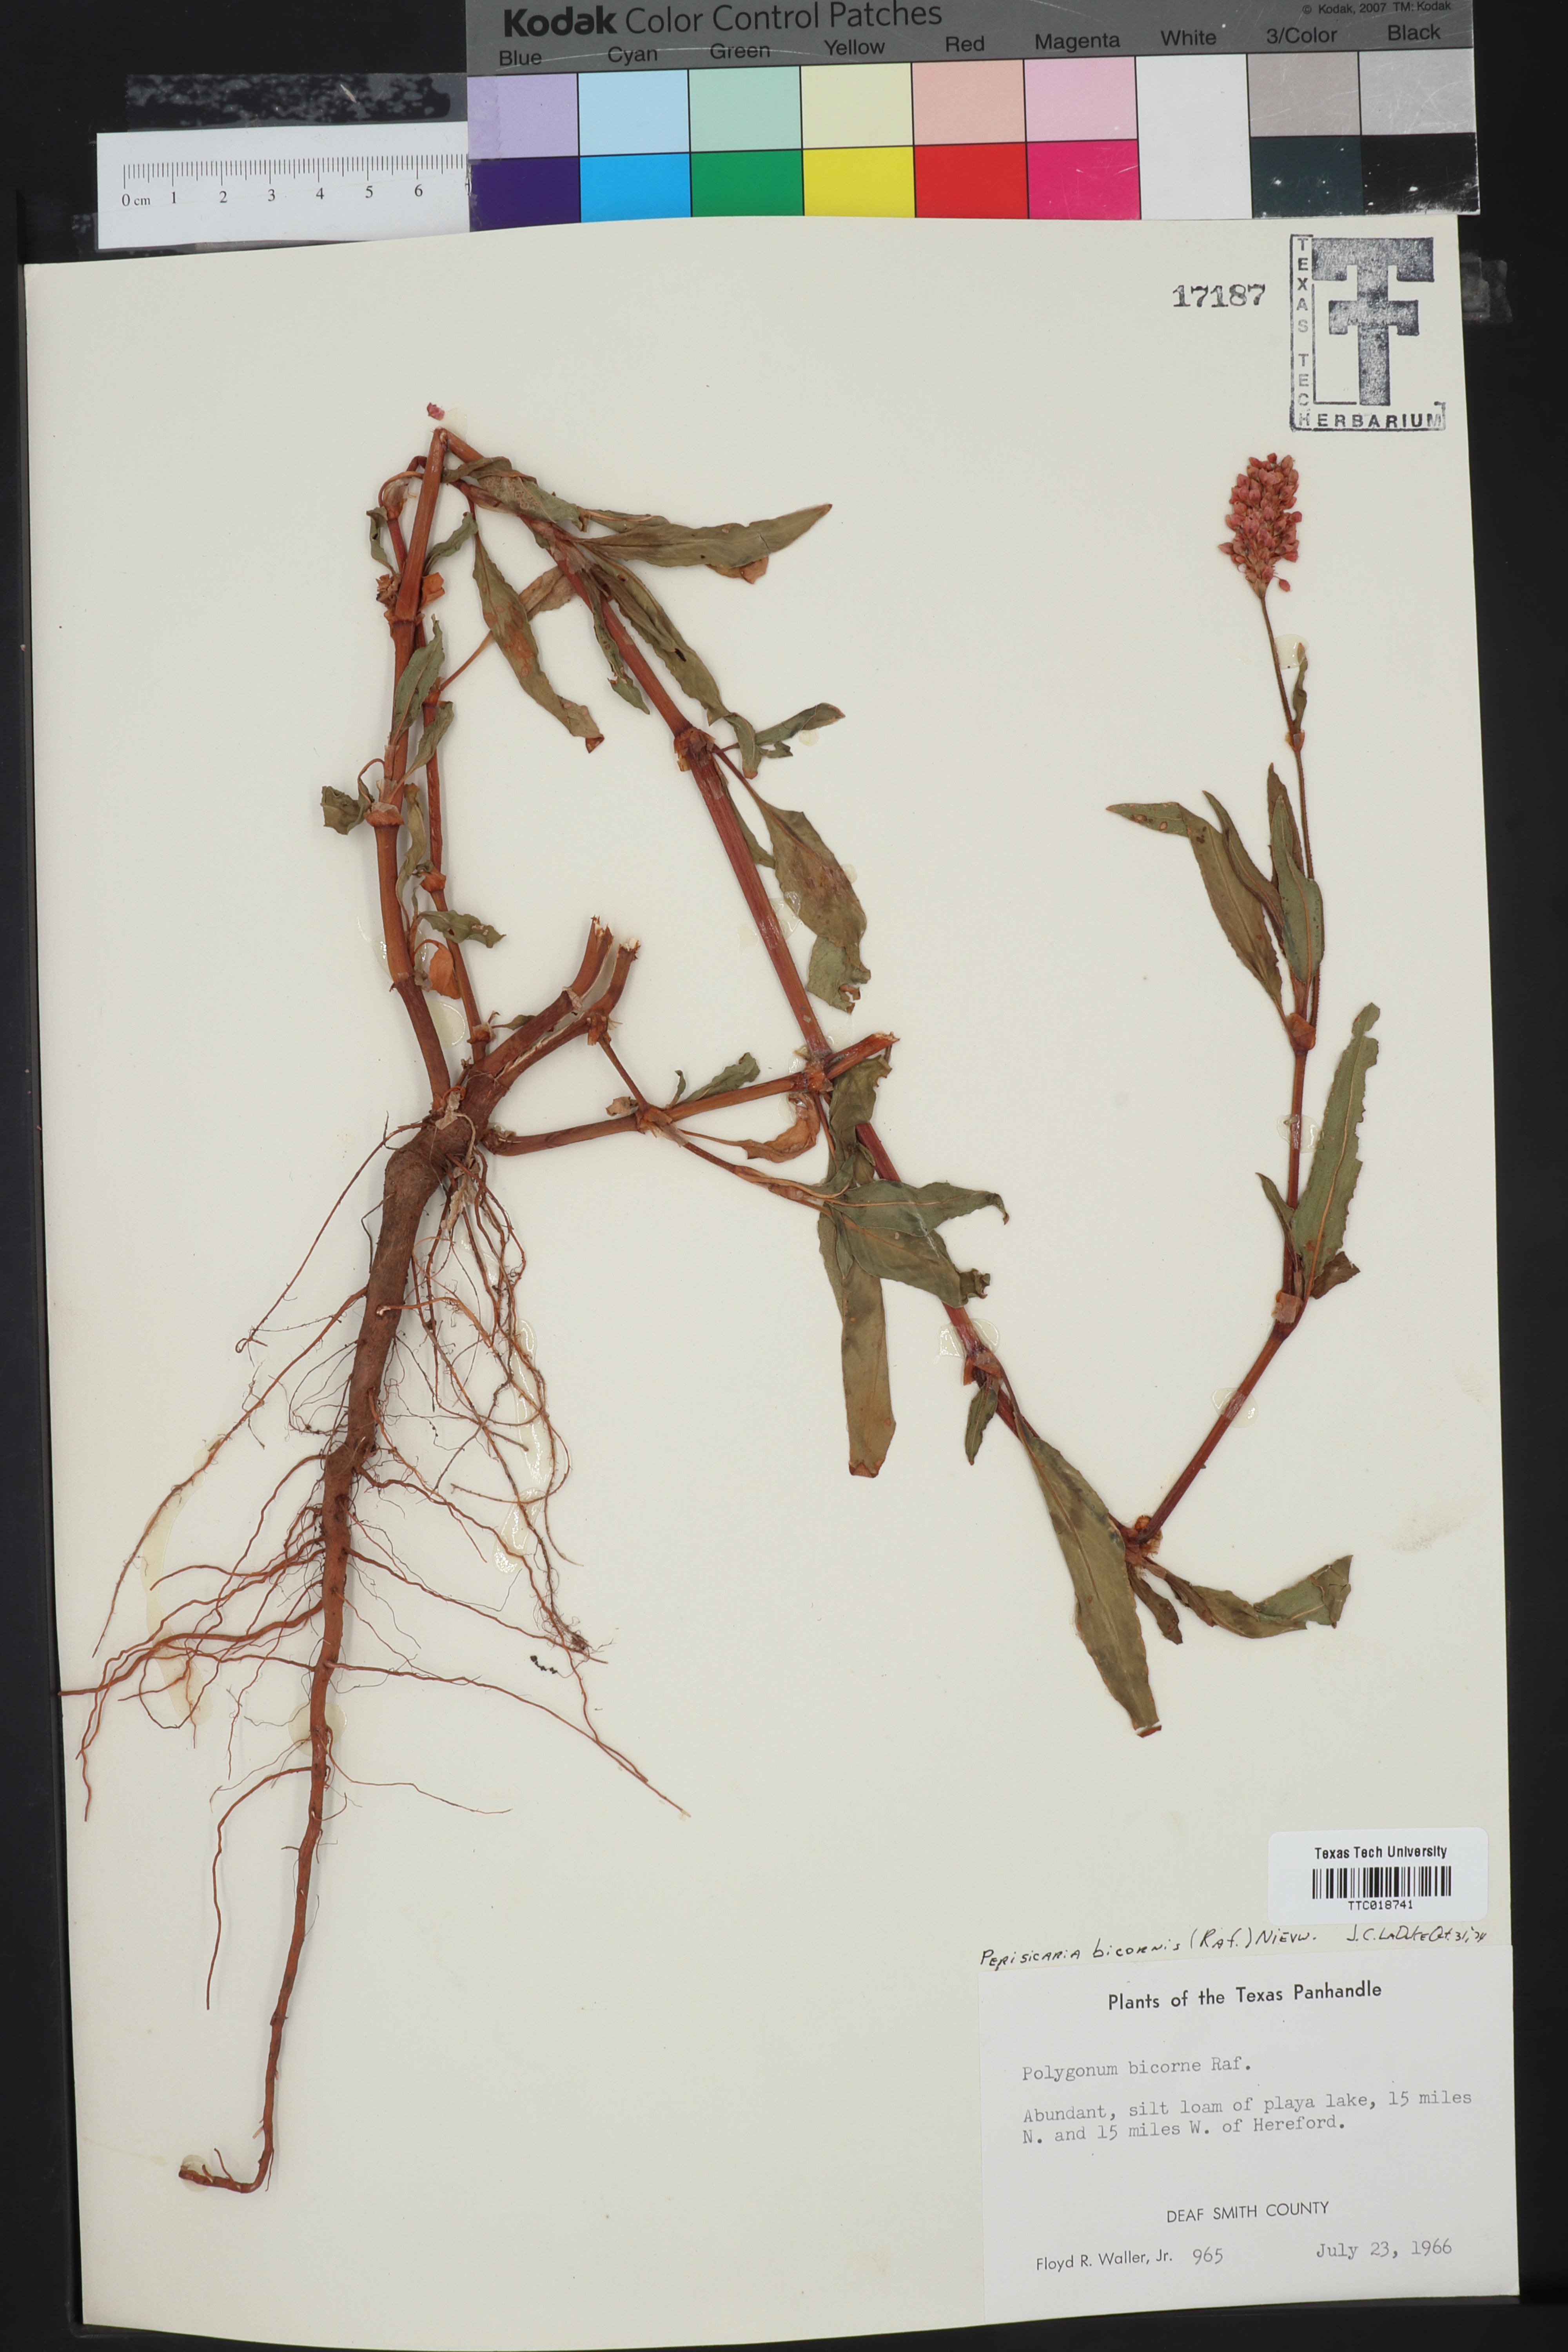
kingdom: Plantae
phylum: Tracheophyta
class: Magnoliopsida
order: Caryophyllales
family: Polygonaceae
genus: Persicaria
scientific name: Persicaria bicornis
